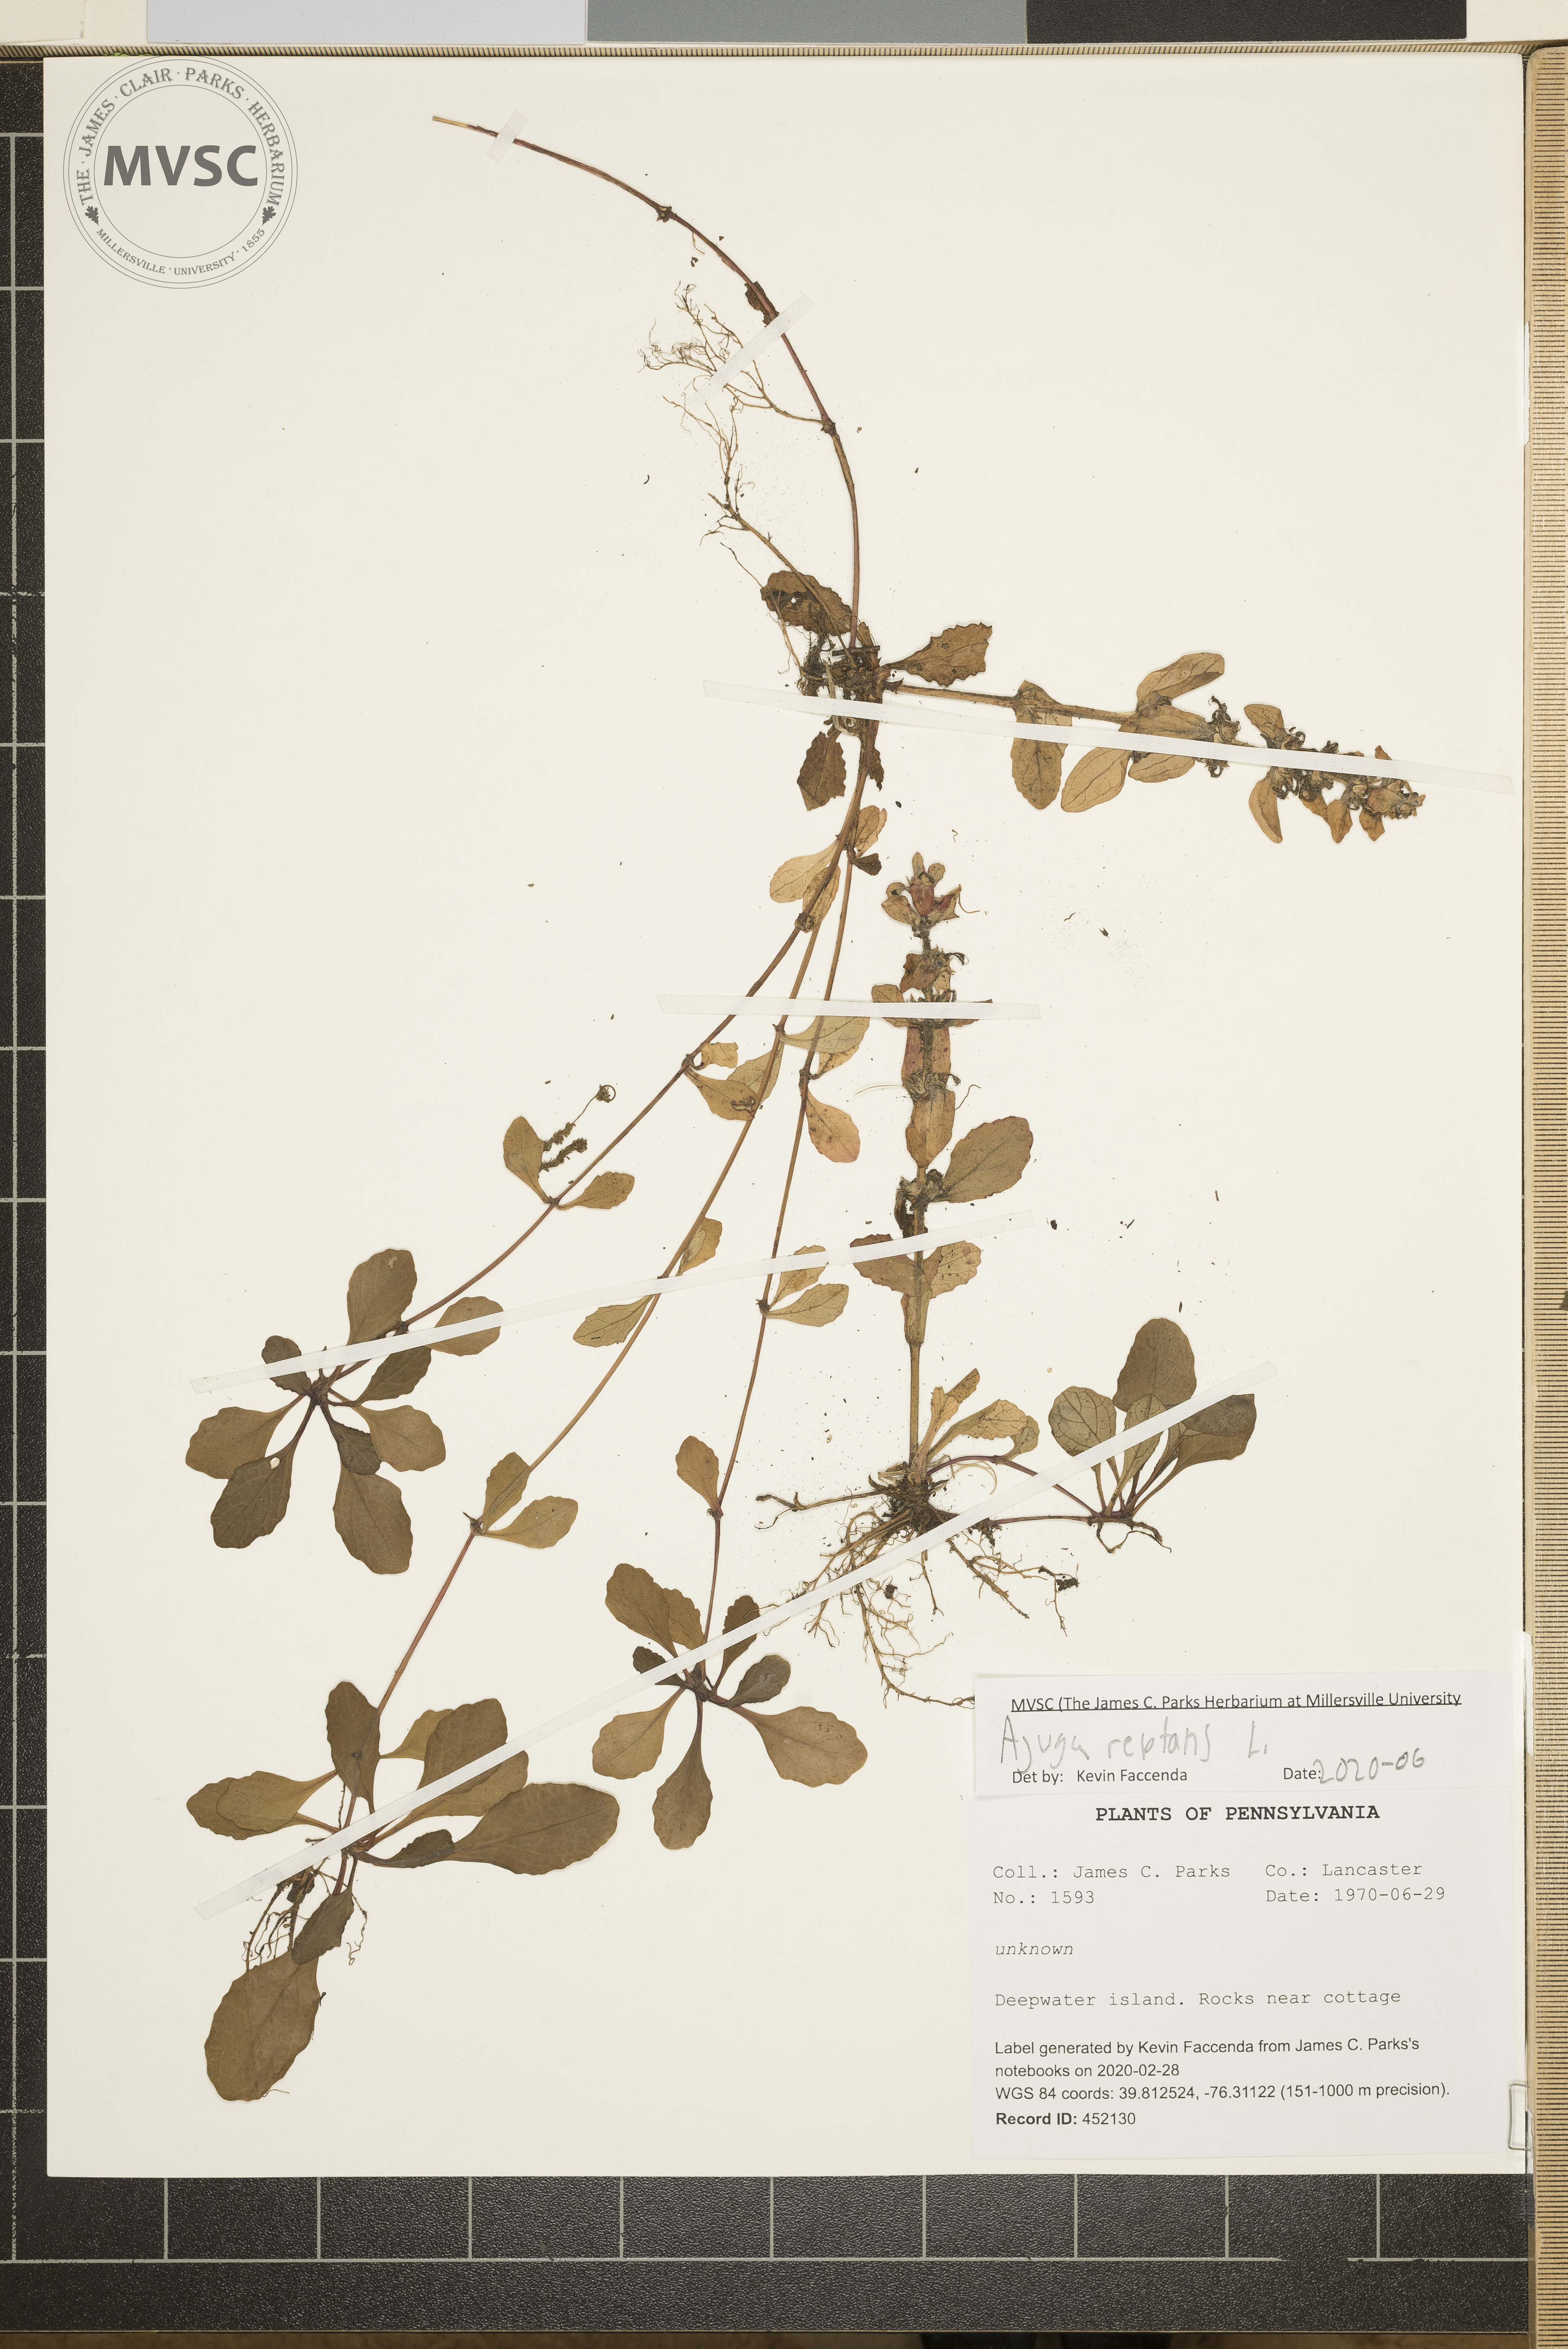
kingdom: Plantae
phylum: Tracheophyta
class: Magnoliopsida
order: Lamiales
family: Lamiaceae
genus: Ajuga
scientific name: Ajuga reptans
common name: Bugle
